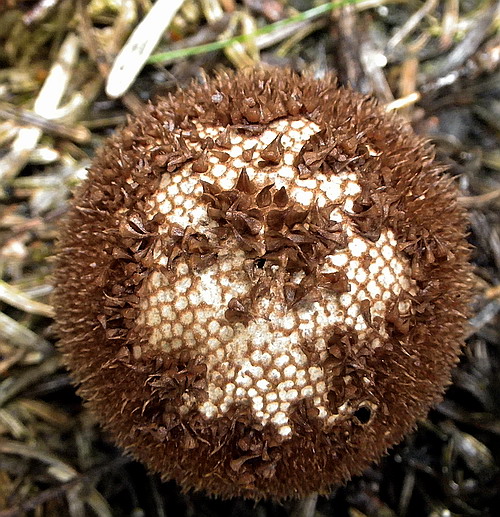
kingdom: Fungi
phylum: Basidiomycota
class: Agaricomycetes
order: Agaricales
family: Lycoperdaceae
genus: Lycoperdon
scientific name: Lycoperdon nigrescens
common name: sortagtig støvbold
